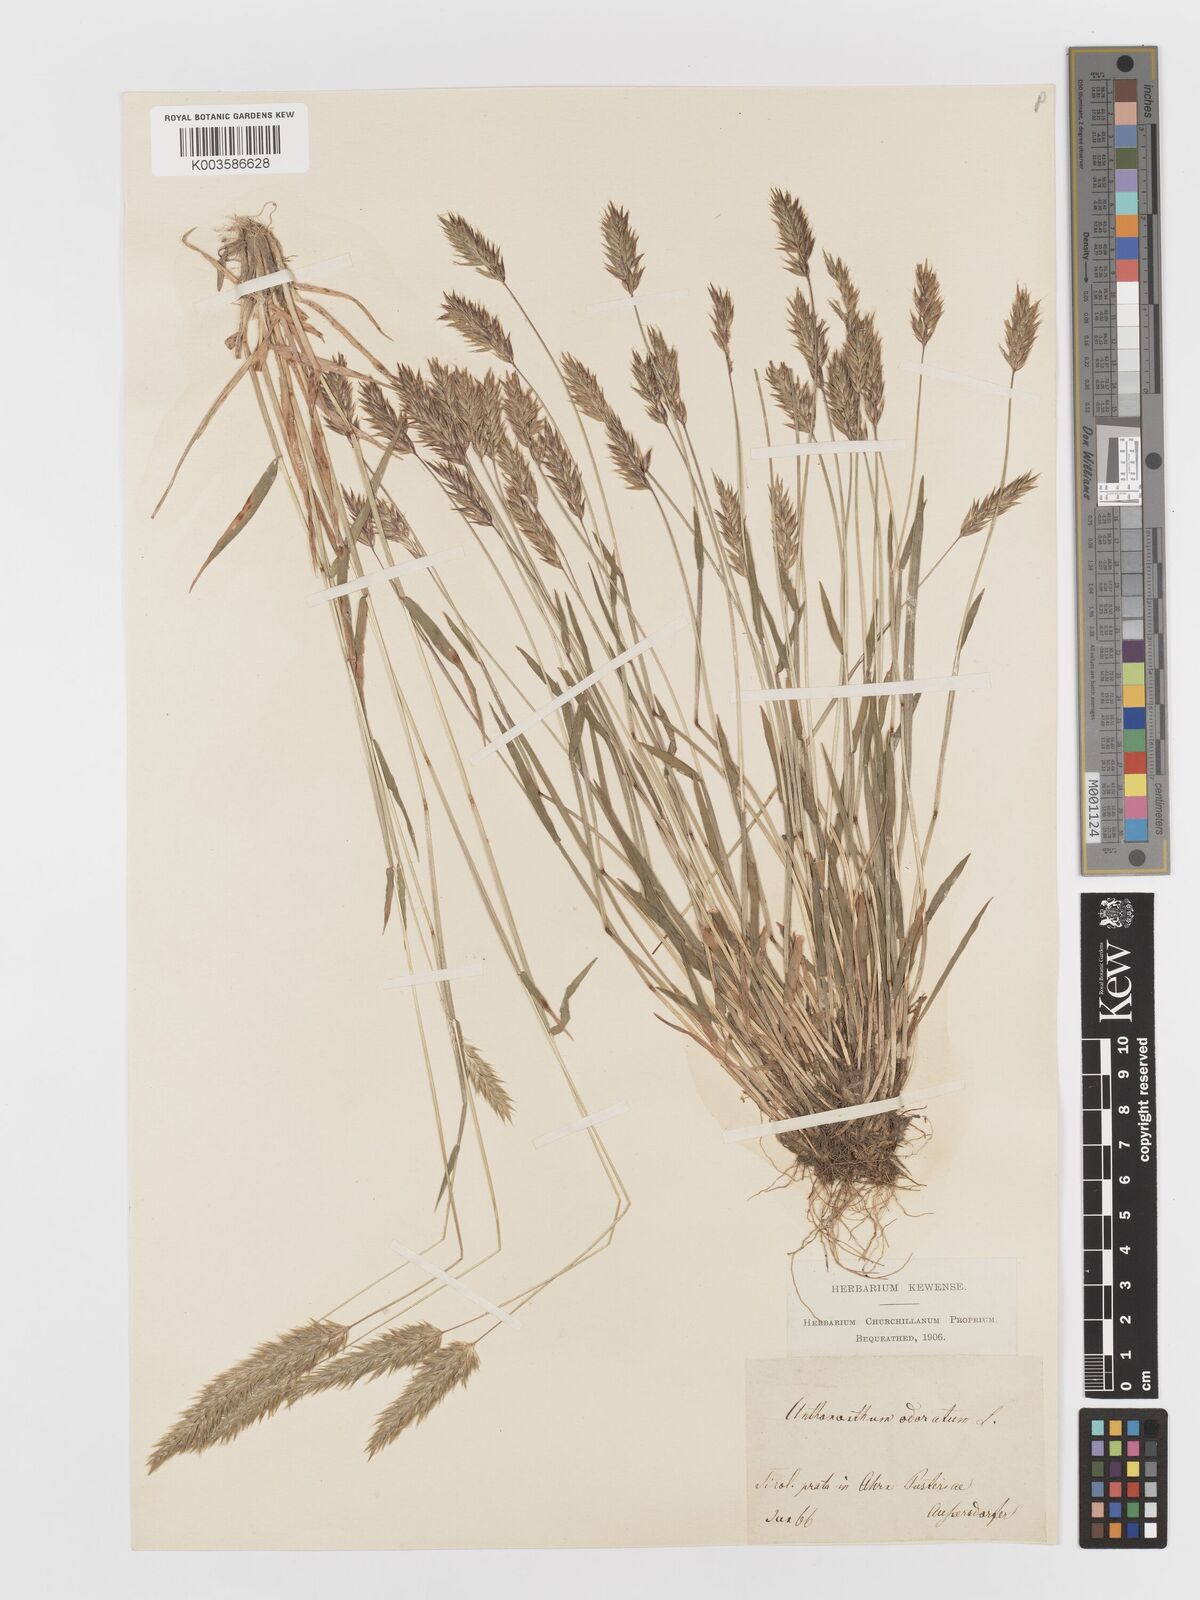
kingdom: Plantae
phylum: Tracheophyta
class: Liliopsida
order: Poales
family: Poaceae
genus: Anthoxanthum
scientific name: Anthoxanthum odoratum
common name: Sweet vernalgrass
